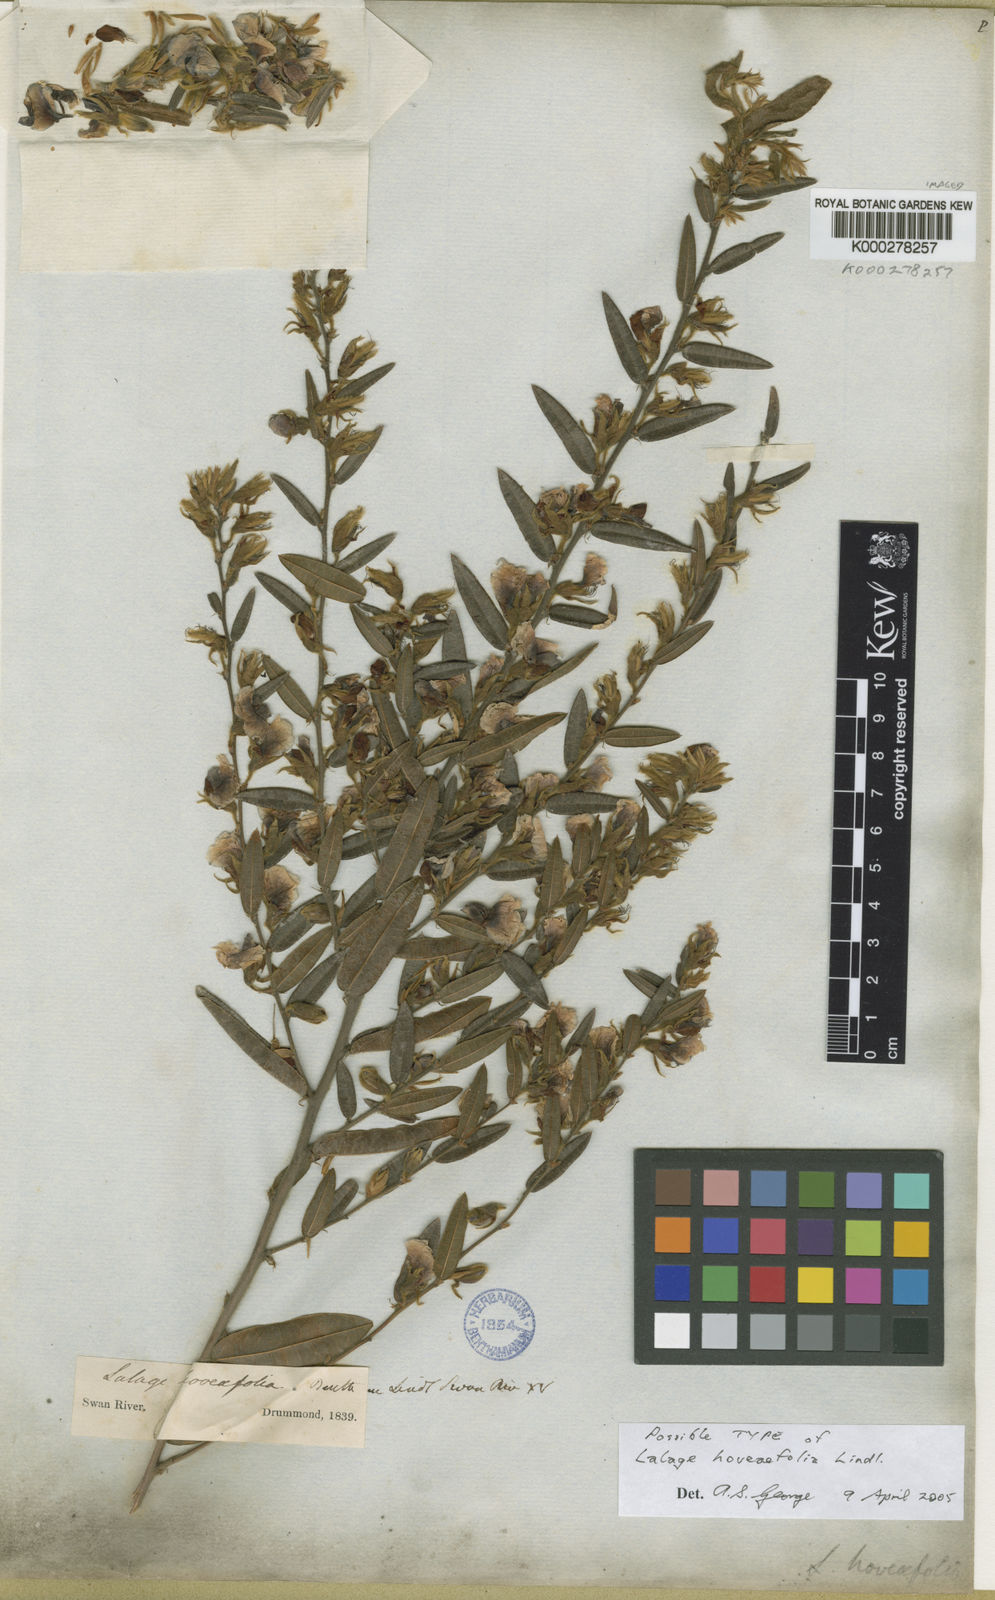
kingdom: Plantae
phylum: Tracheophyta
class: Magnoliopsida
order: Fabales
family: Fabaceae
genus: Bossiaea
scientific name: Bossiaea ornata
